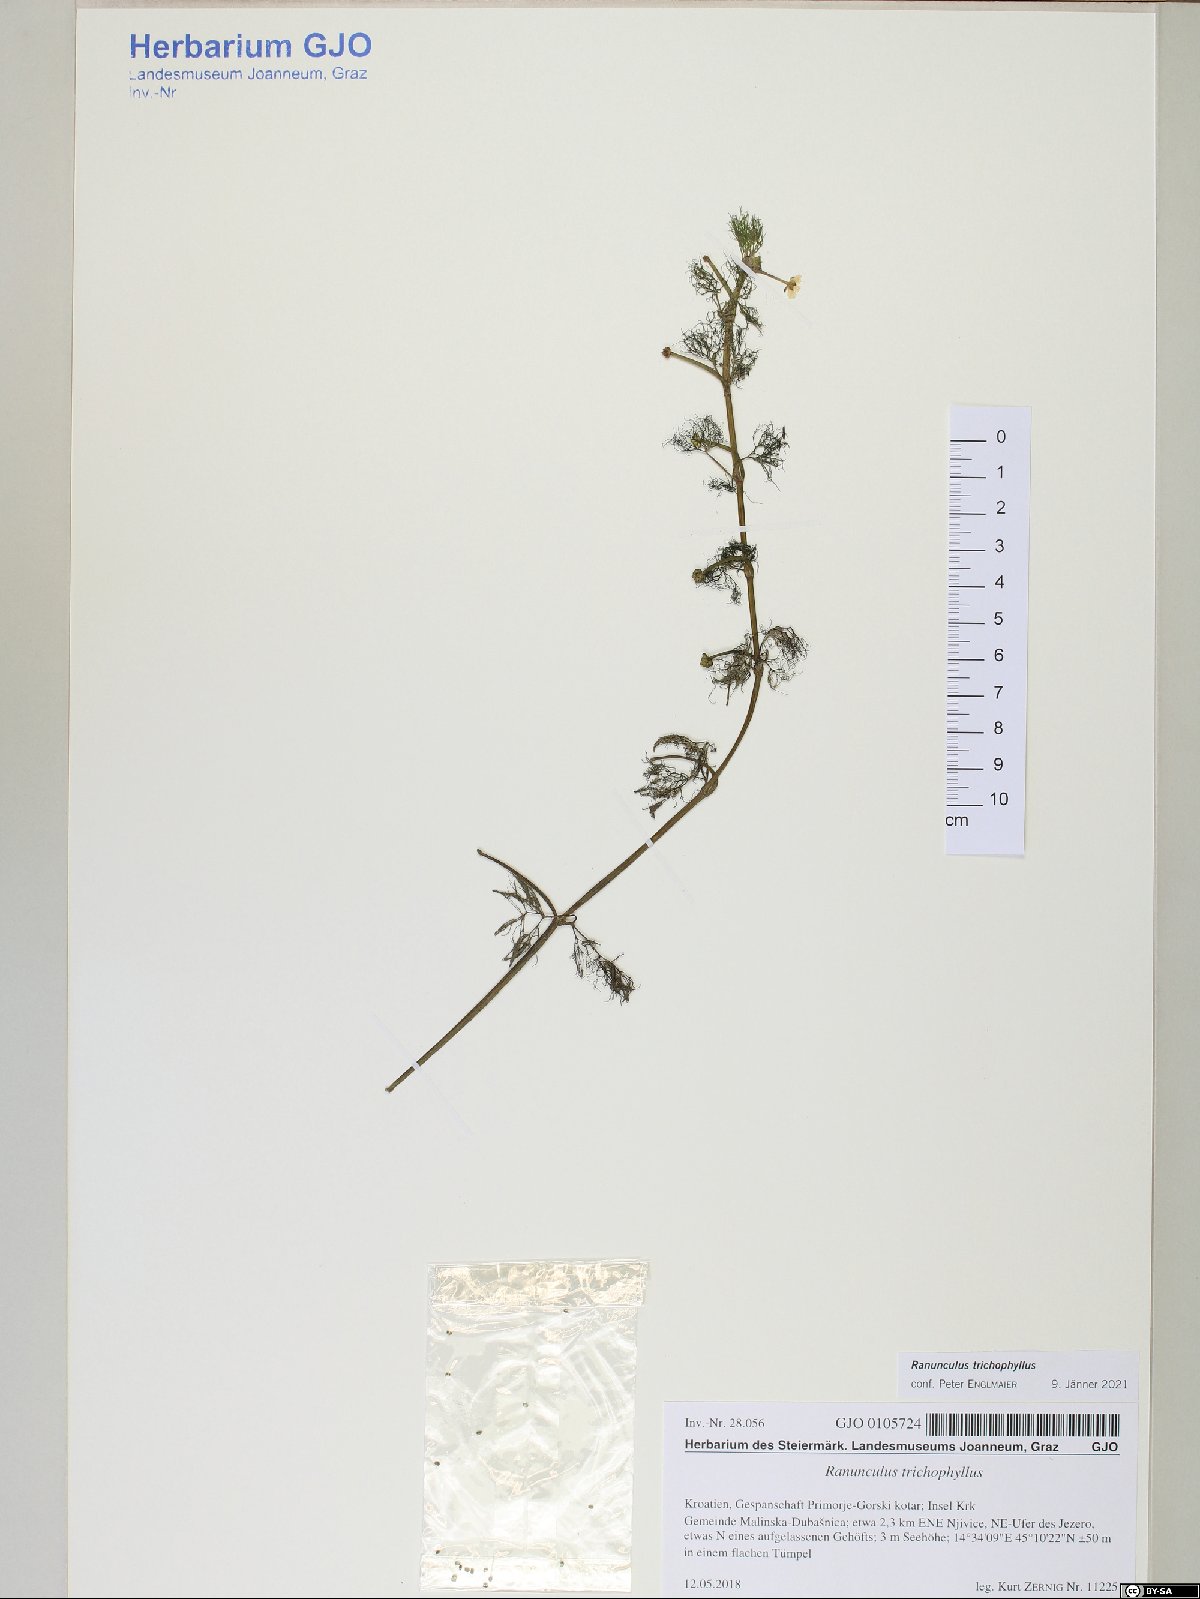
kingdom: Plantae
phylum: Tracheophyta
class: Magnoliopsida
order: Ranunculales
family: Ranunculaceae
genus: Ranunculus
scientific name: Ranunculus trichophyllus
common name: Thread-leaved water-crowfoot
